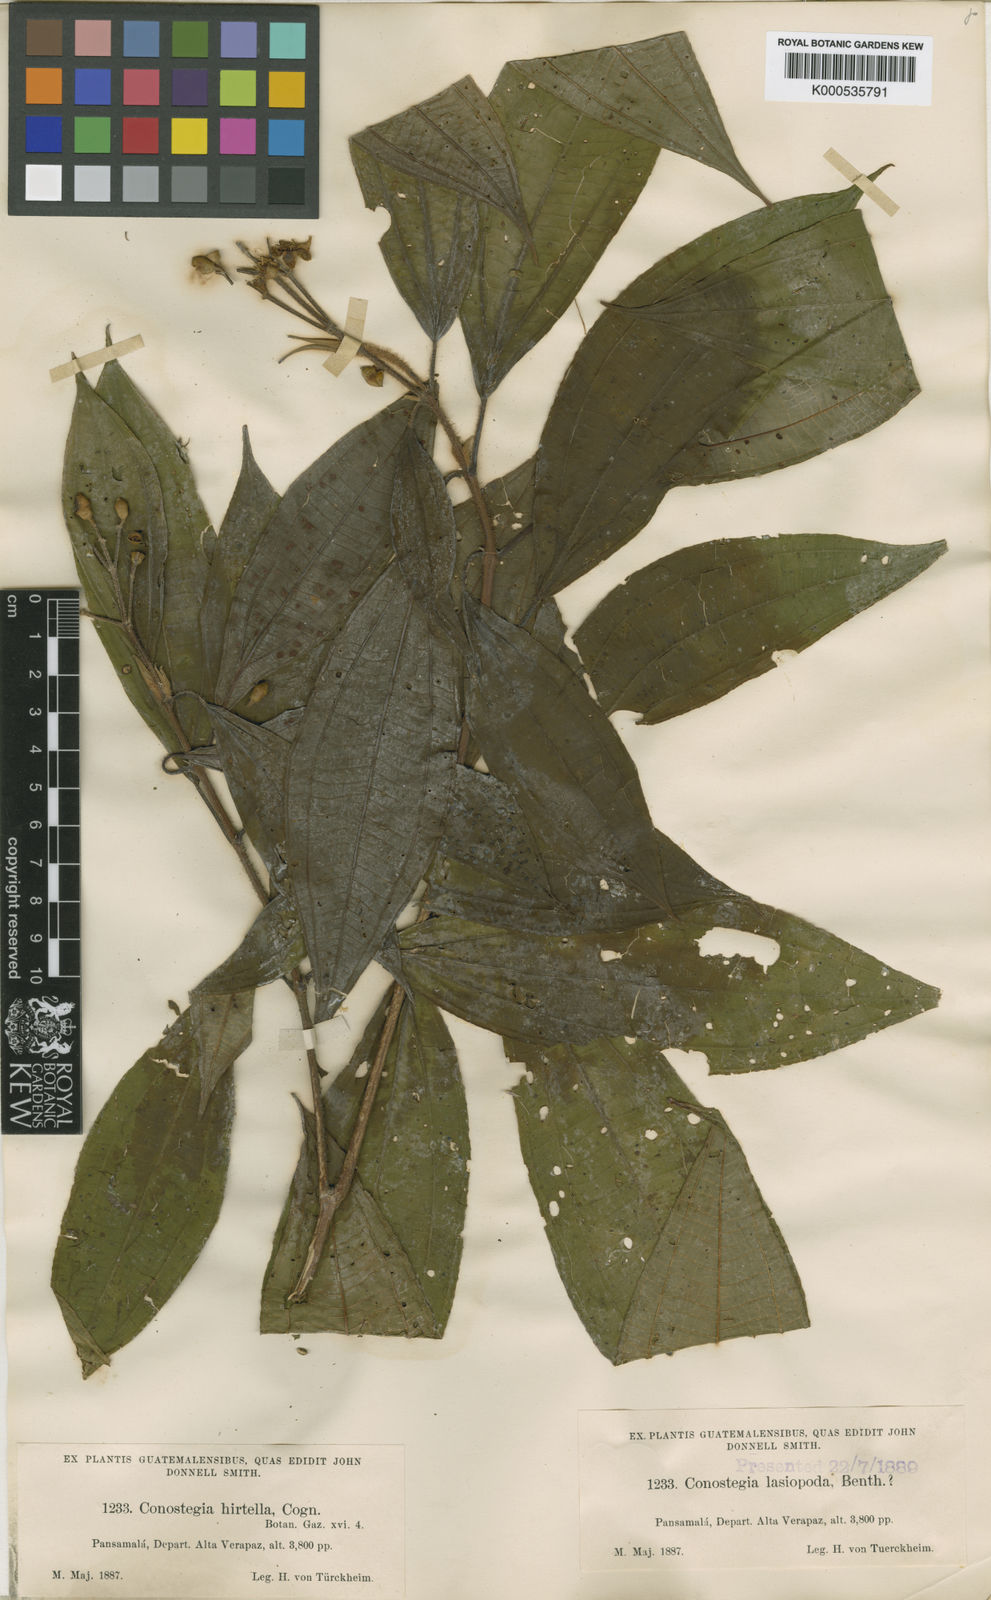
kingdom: Plantae
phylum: Tracheophyta
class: Magnoliopsida
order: Myrtales
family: Melastomataceae
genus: Miconia
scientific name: Miconia conohirtella
